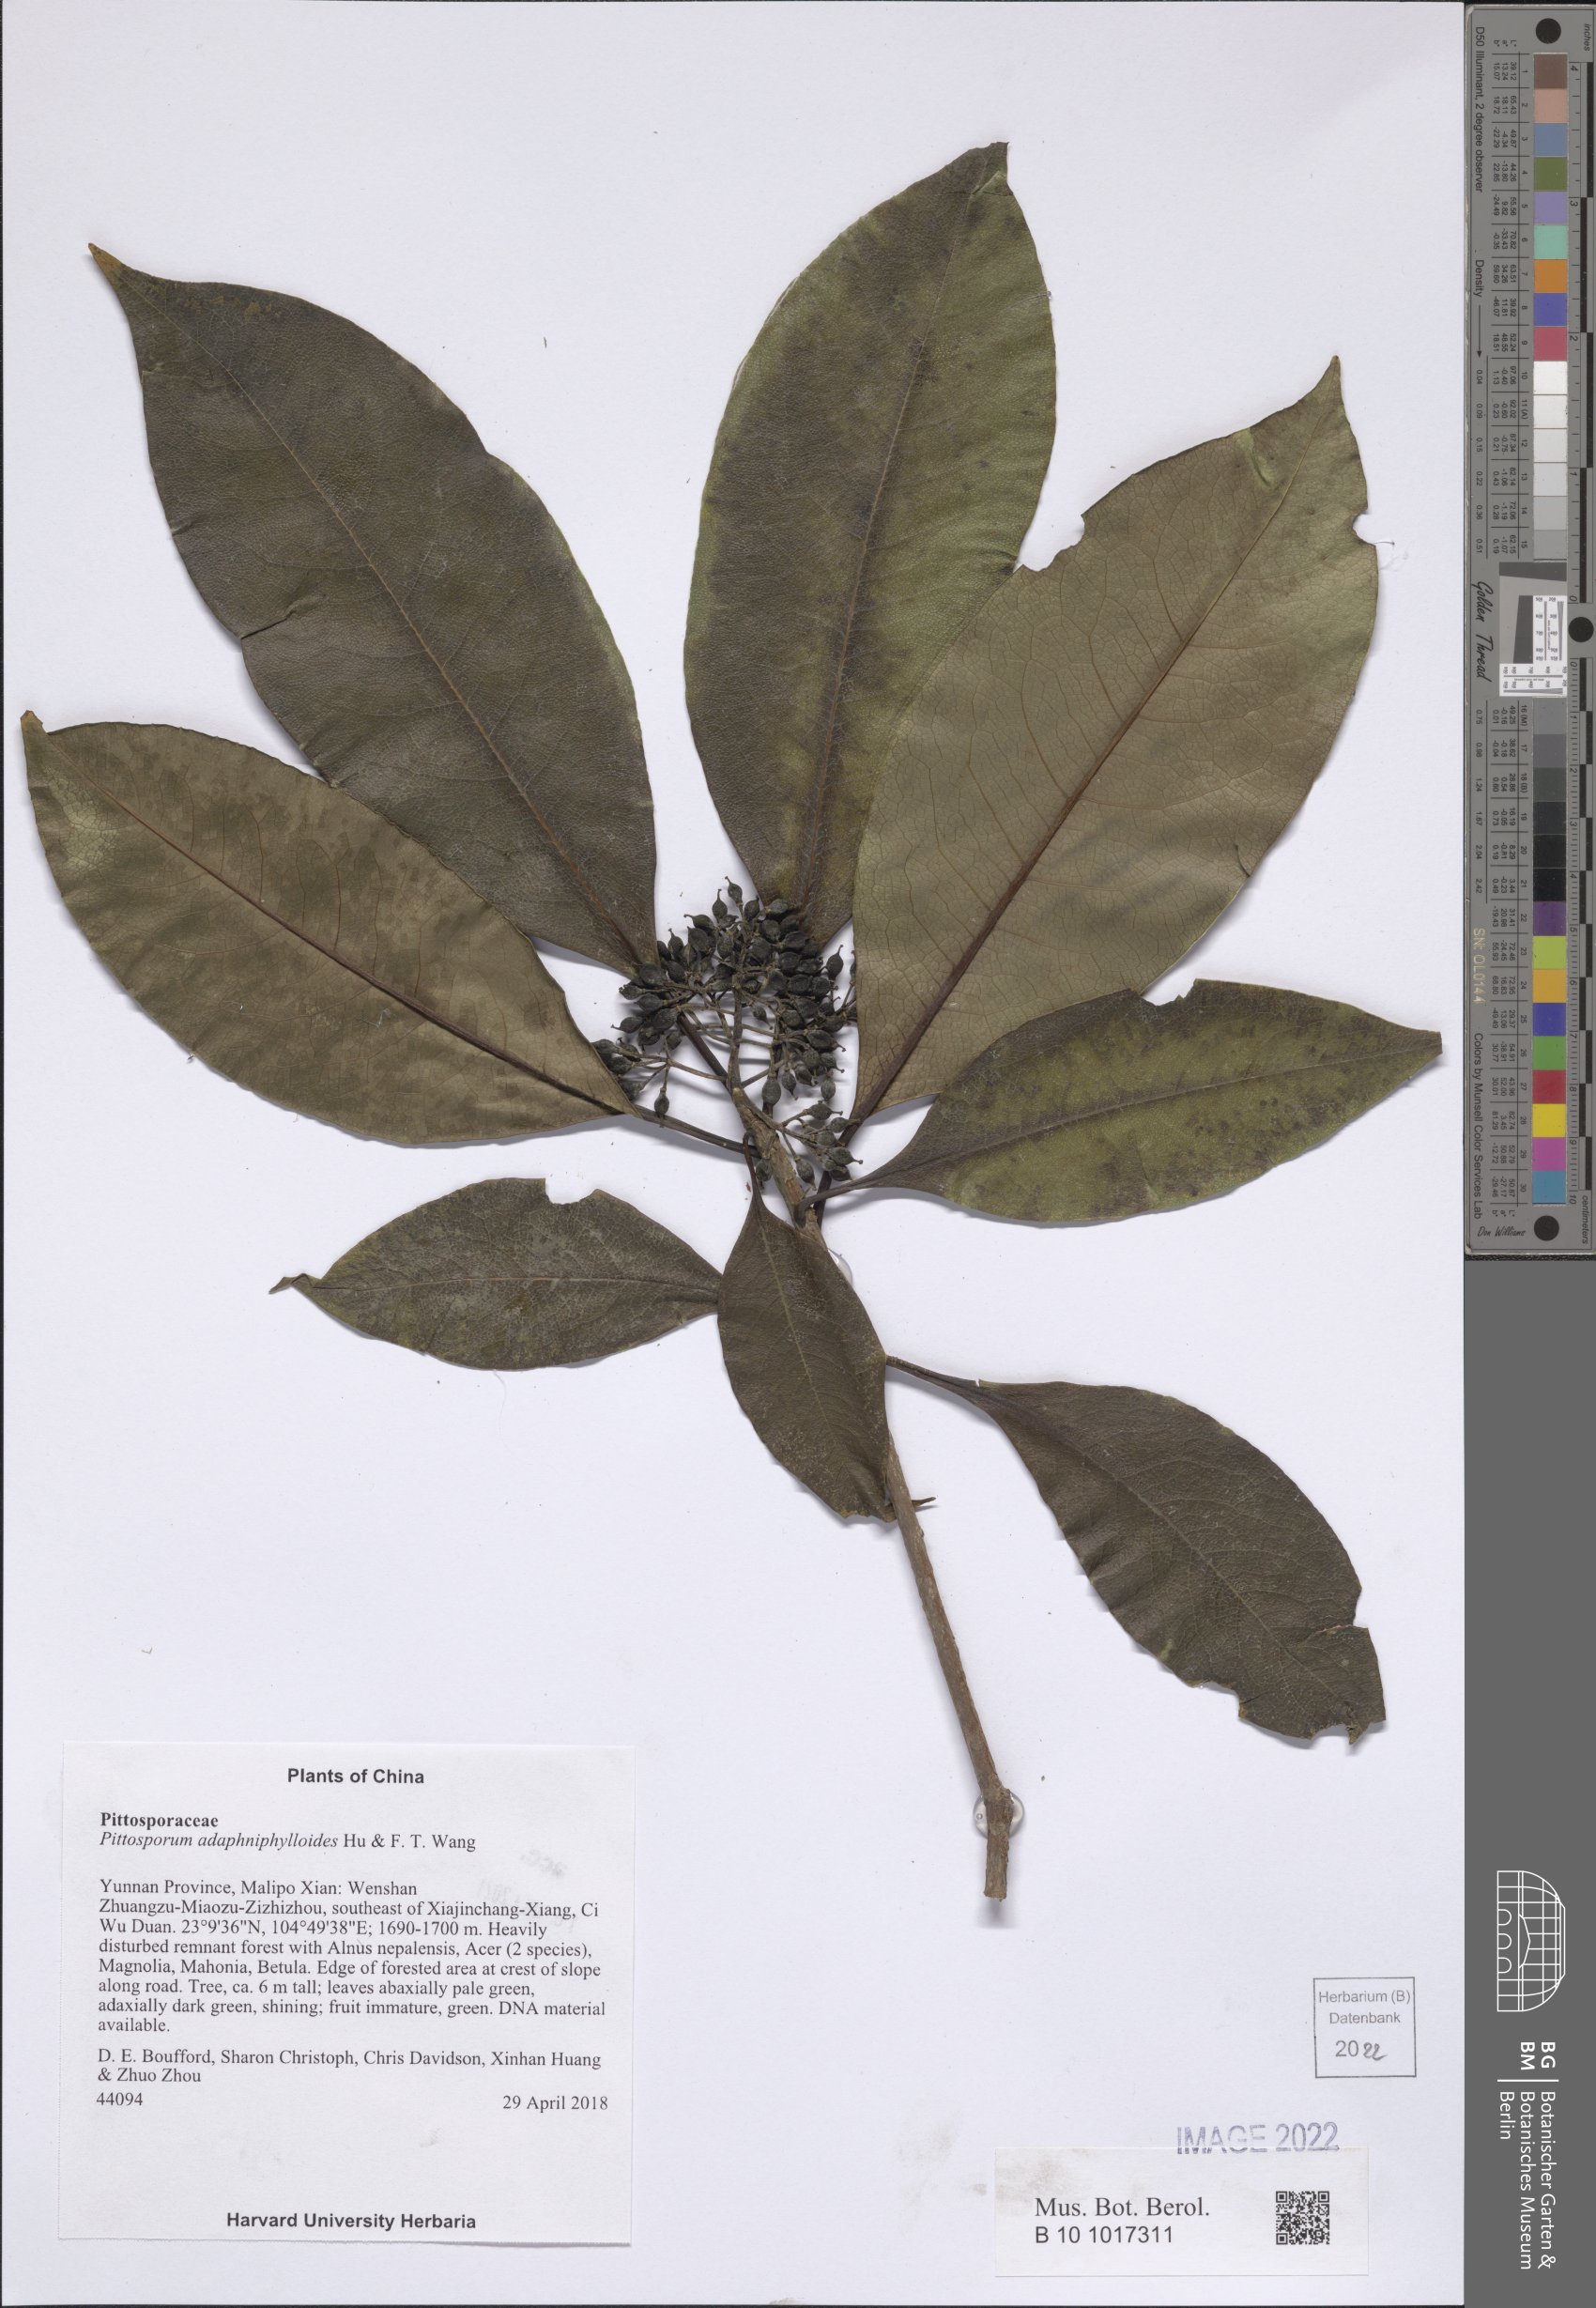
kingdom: Plantae
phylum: Tracheophyta
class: Magnoliopsida
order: Apiales
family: Pittosporaceae
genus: Pittosporum
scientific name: Pittosporum daphniphylloides
